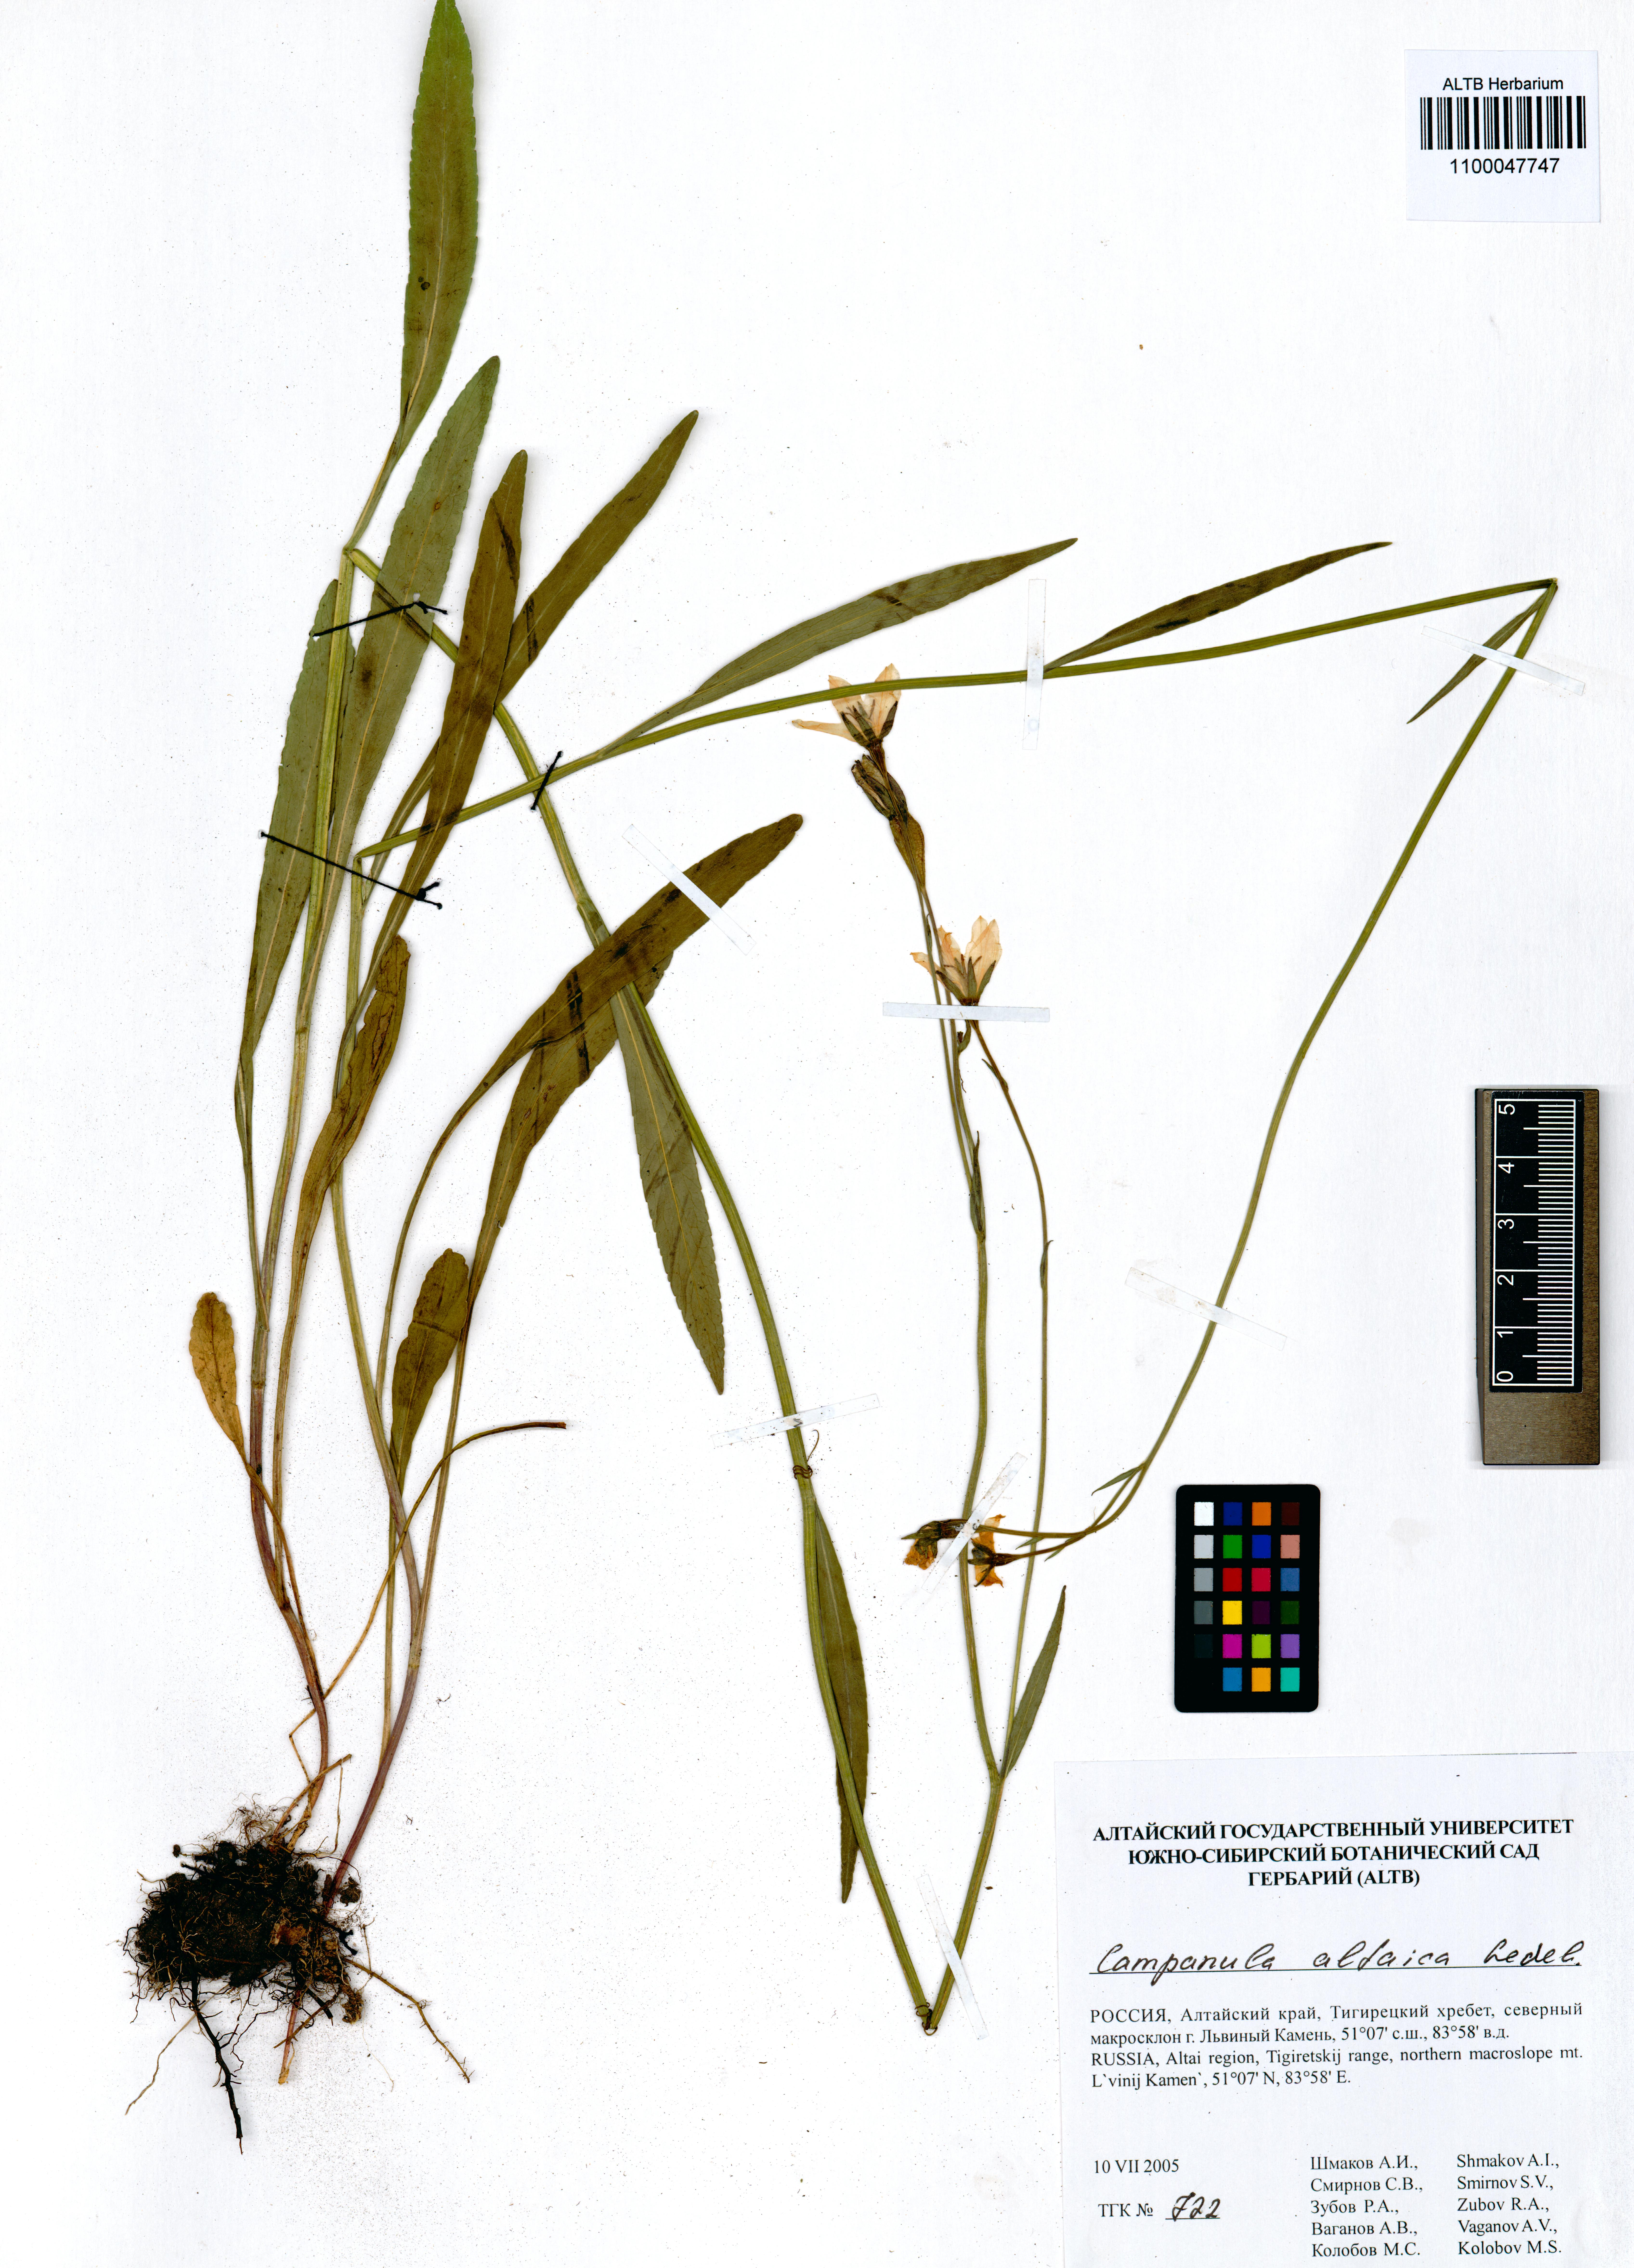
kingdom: Plantae
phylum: Tracheophyta
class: Magnoliopsida
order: Asterales
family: Campanulaceae
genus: Campanula
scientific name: Campanula stevenii
